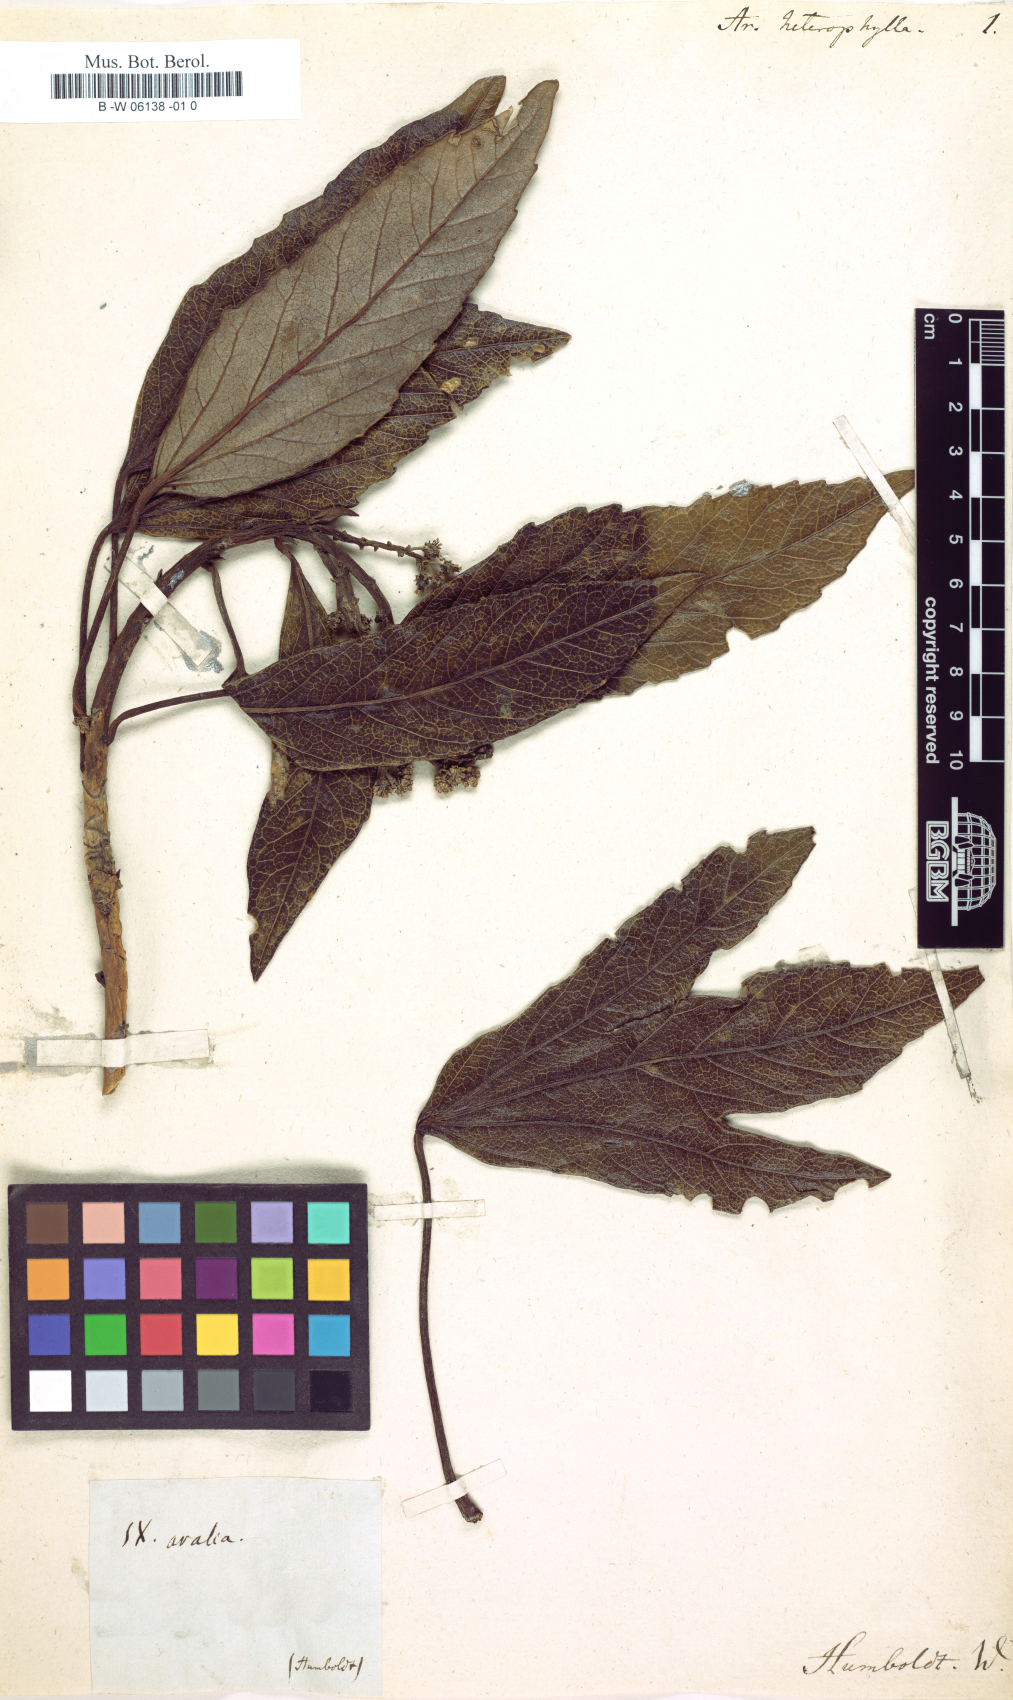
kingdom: Plantae
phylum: Tracheophyta
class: Magnoliopsida
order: Apiales
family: Araliaceae
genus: Oreopanax
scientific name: Oreopanax acerifolius
